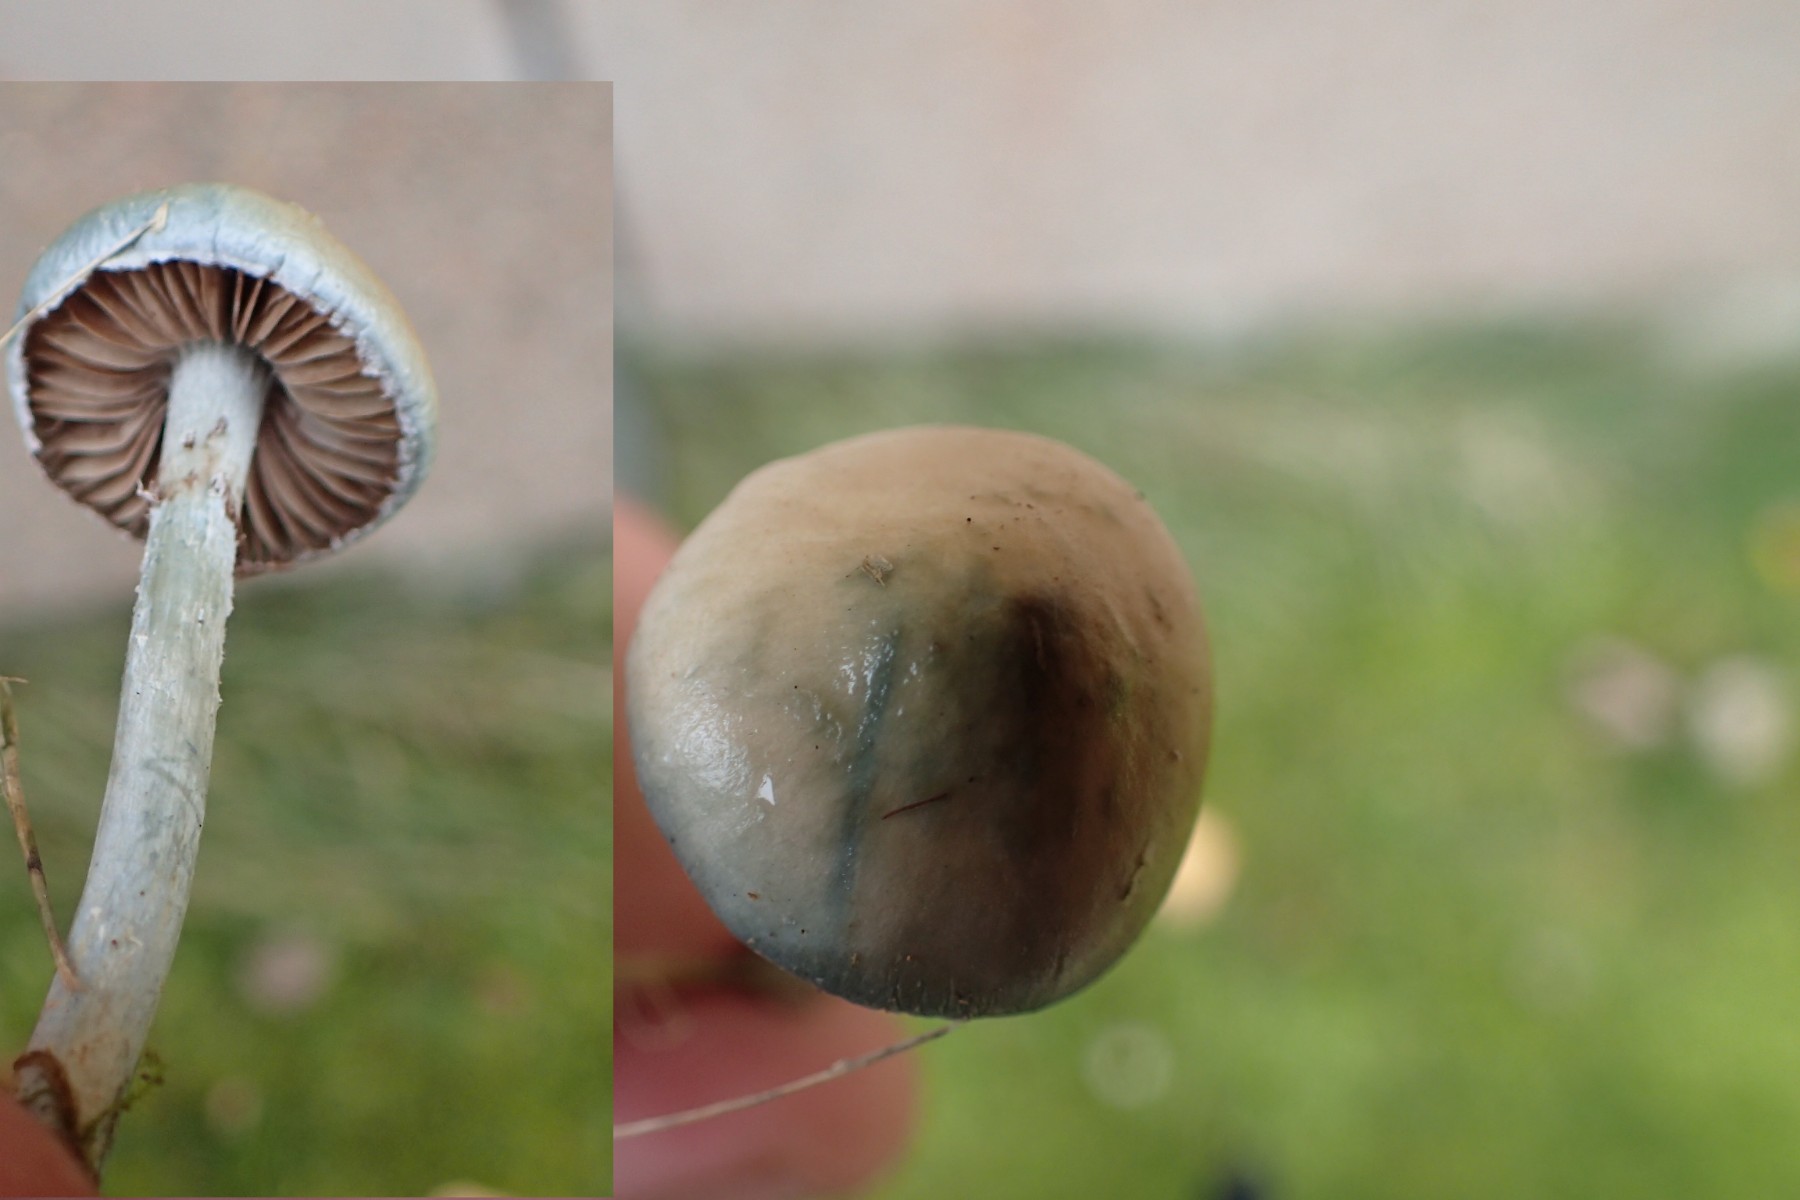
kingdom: Fungi
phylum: Basidiomycota
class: Agaricomycetes
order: Agaricales
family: Strophariaceae
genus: Stropharia
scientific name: Stropharia
